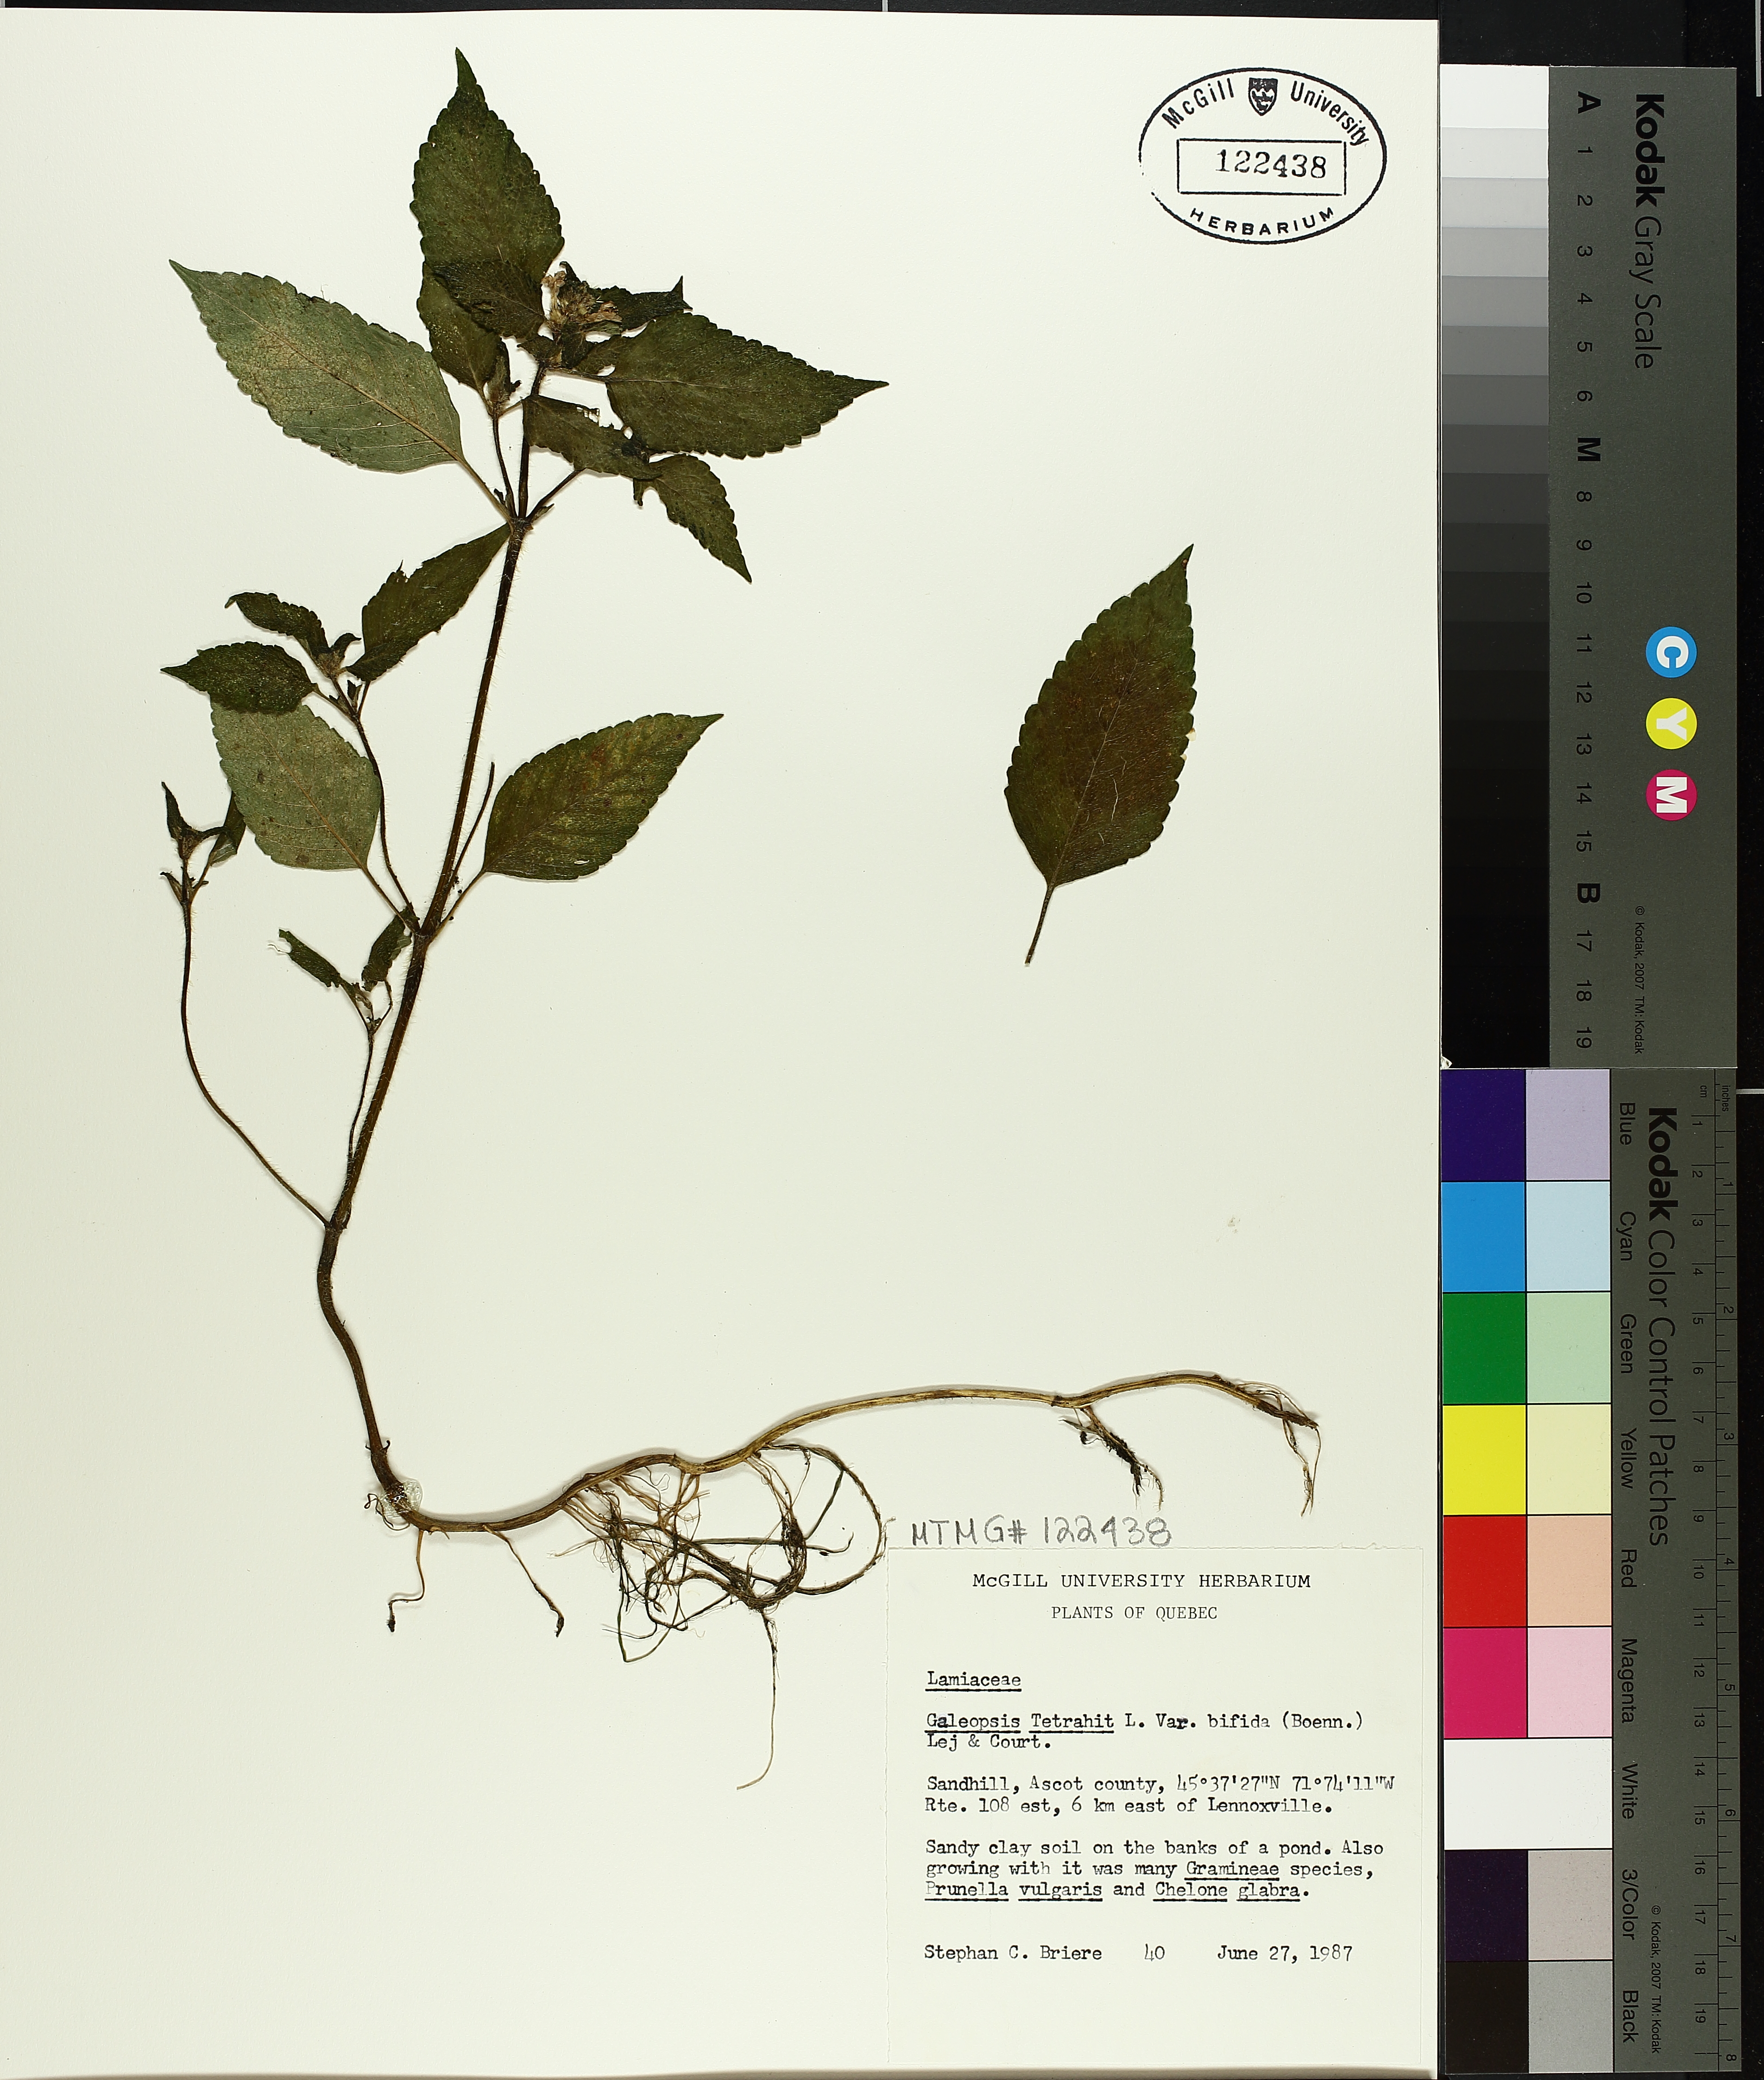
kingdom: Plantae
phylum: Tracheophyta
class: Magnoliopsida
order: Lamiales
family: Lamiaceae
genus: Galeopsis
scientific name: Galeopsis bifida
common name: Bifid hemp-nettle
